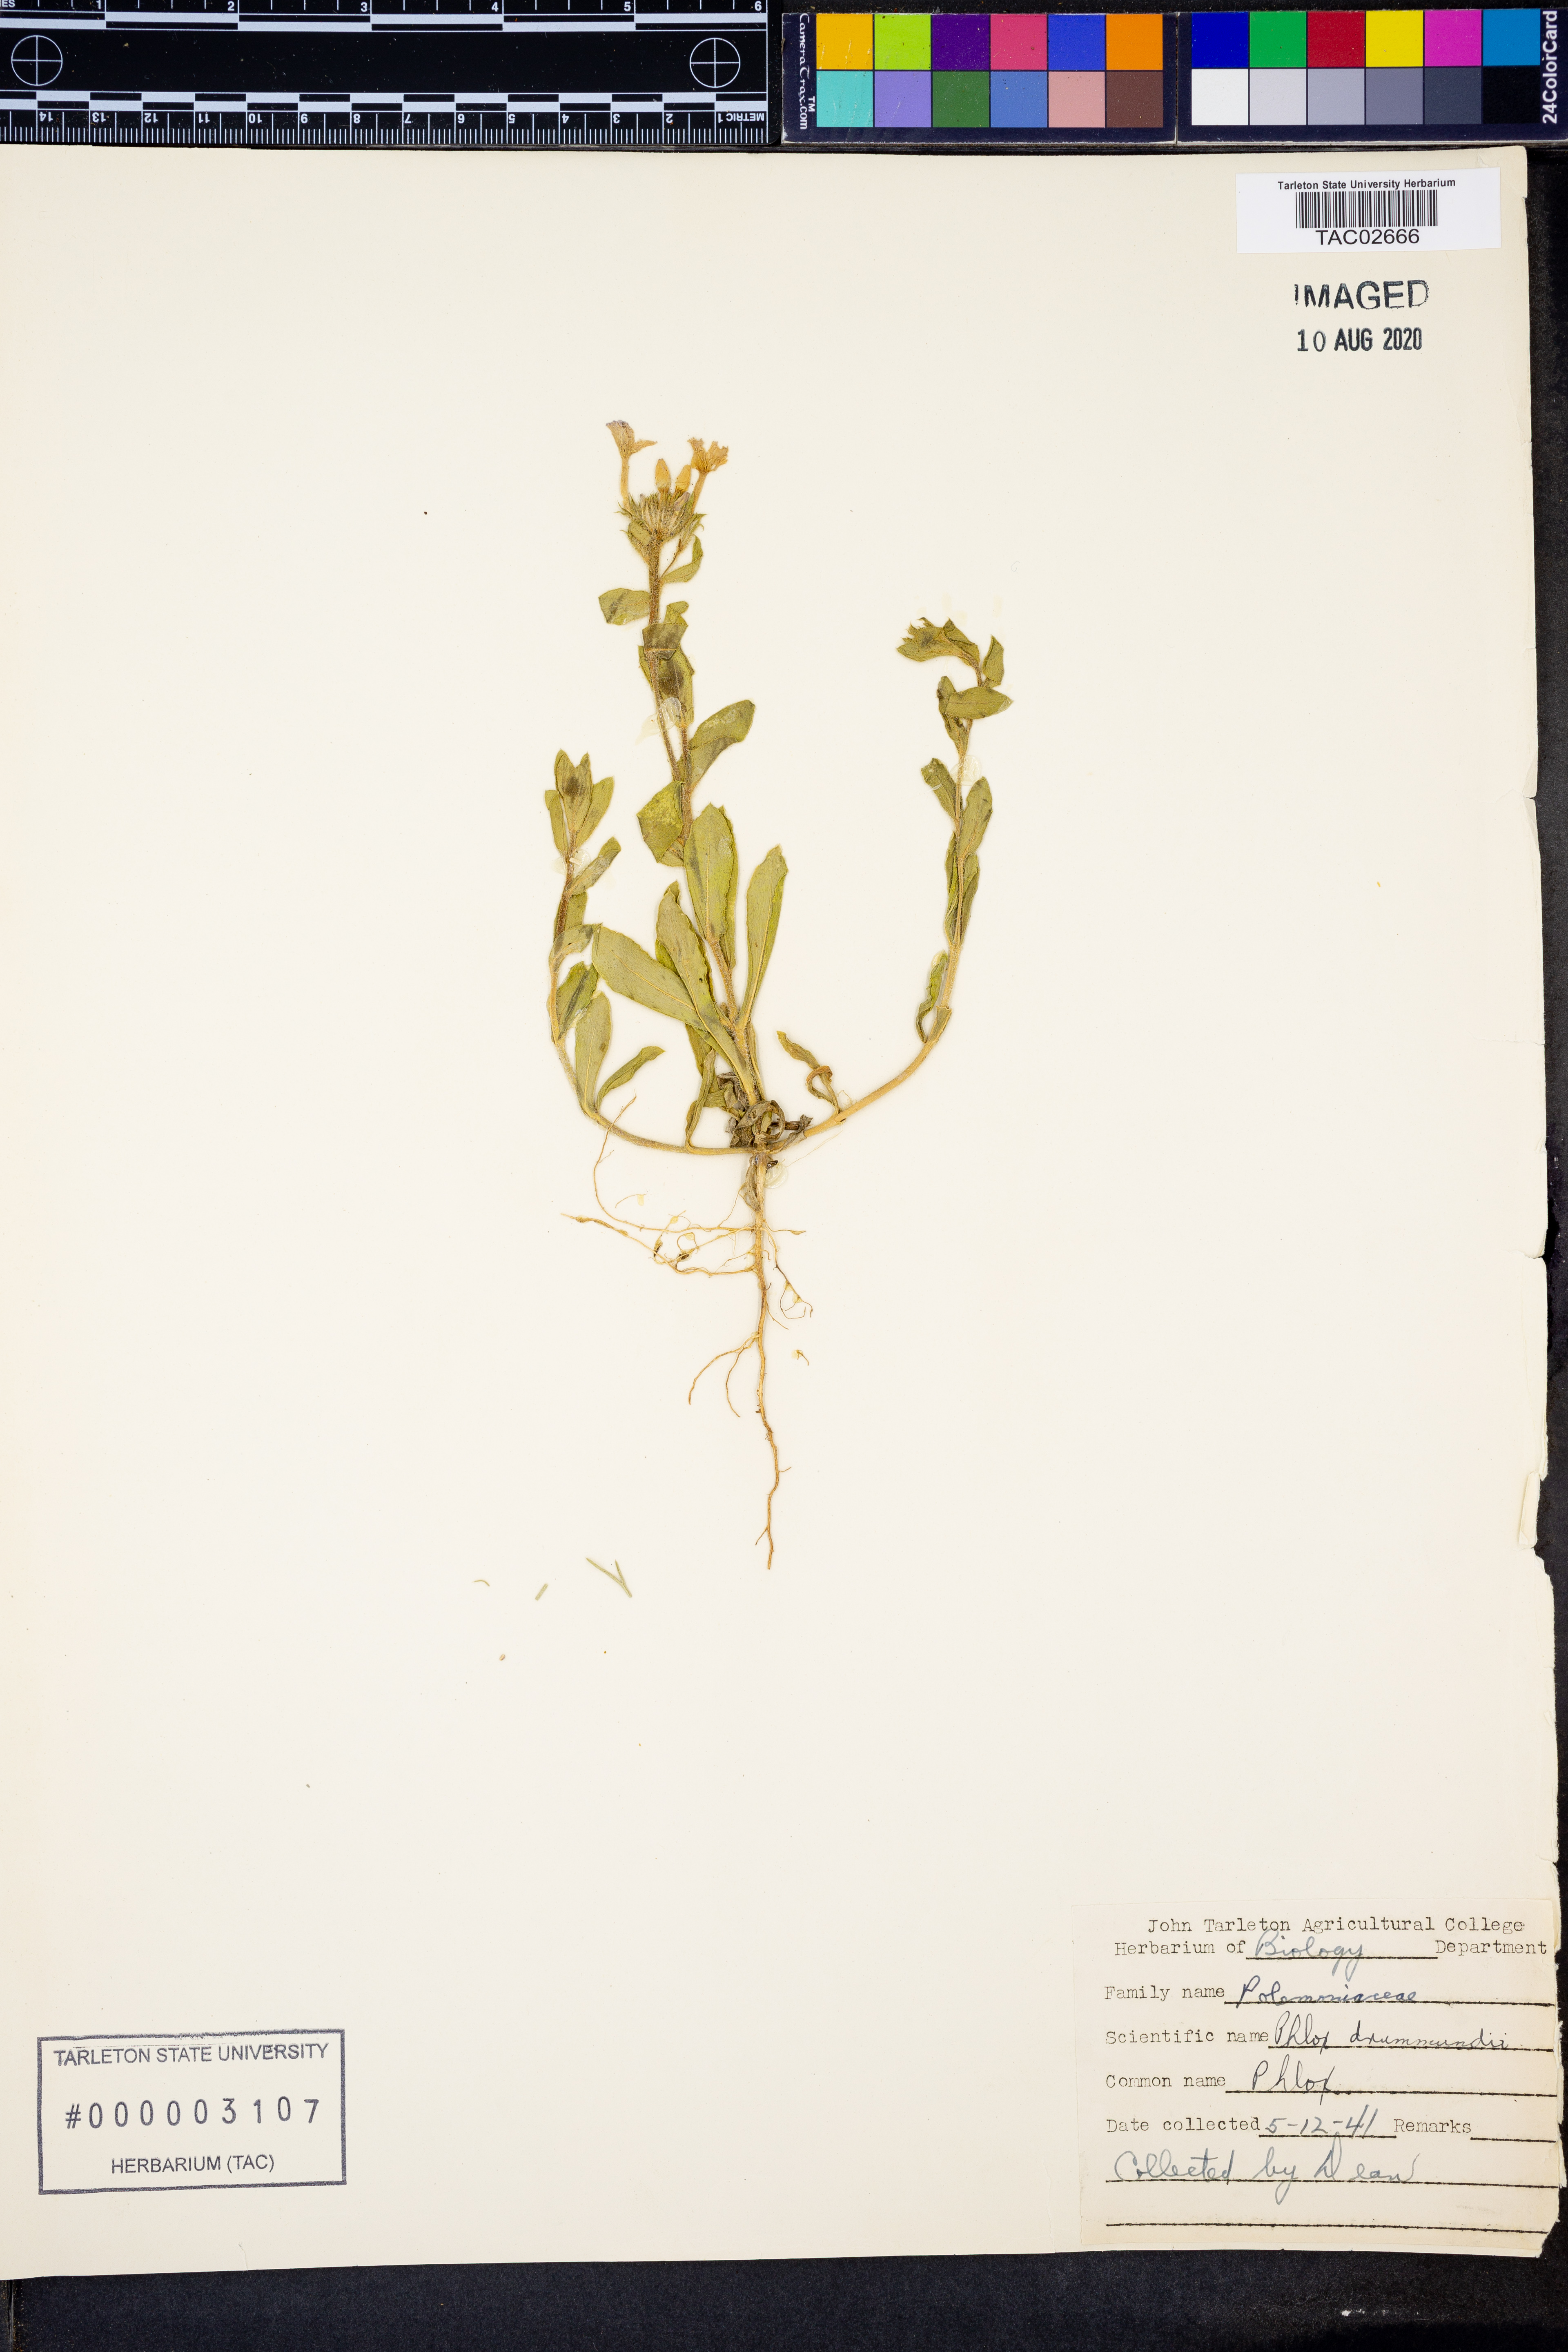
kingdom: Plantae
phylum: Tracheophyta
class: Magnoliopsida
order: Ericales
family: Polemoniaceae
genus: Phlox
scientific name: Phlox drummondii
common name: Drummond's phlox
